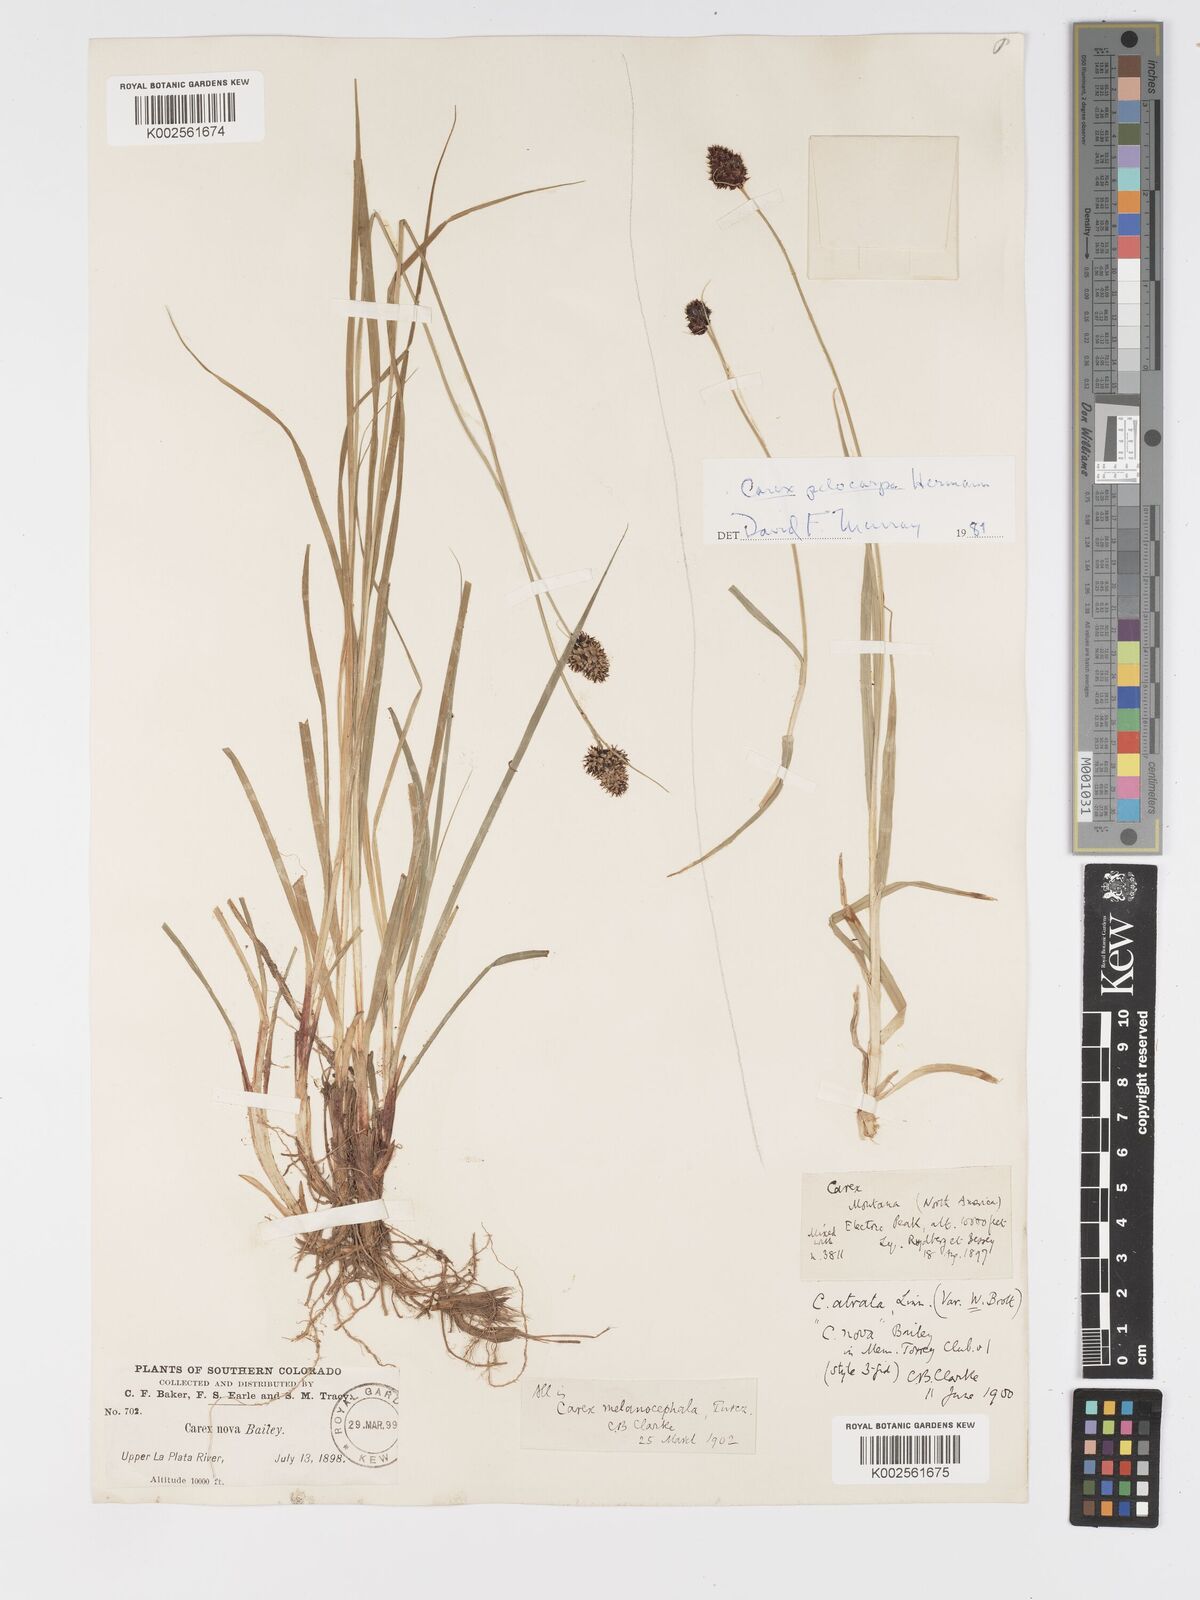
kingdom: Plantae
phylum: Tracheophyta
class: Liliopsida
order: Poales
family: Cyperaceae
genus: Carex
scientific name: Carex pelocarpa
